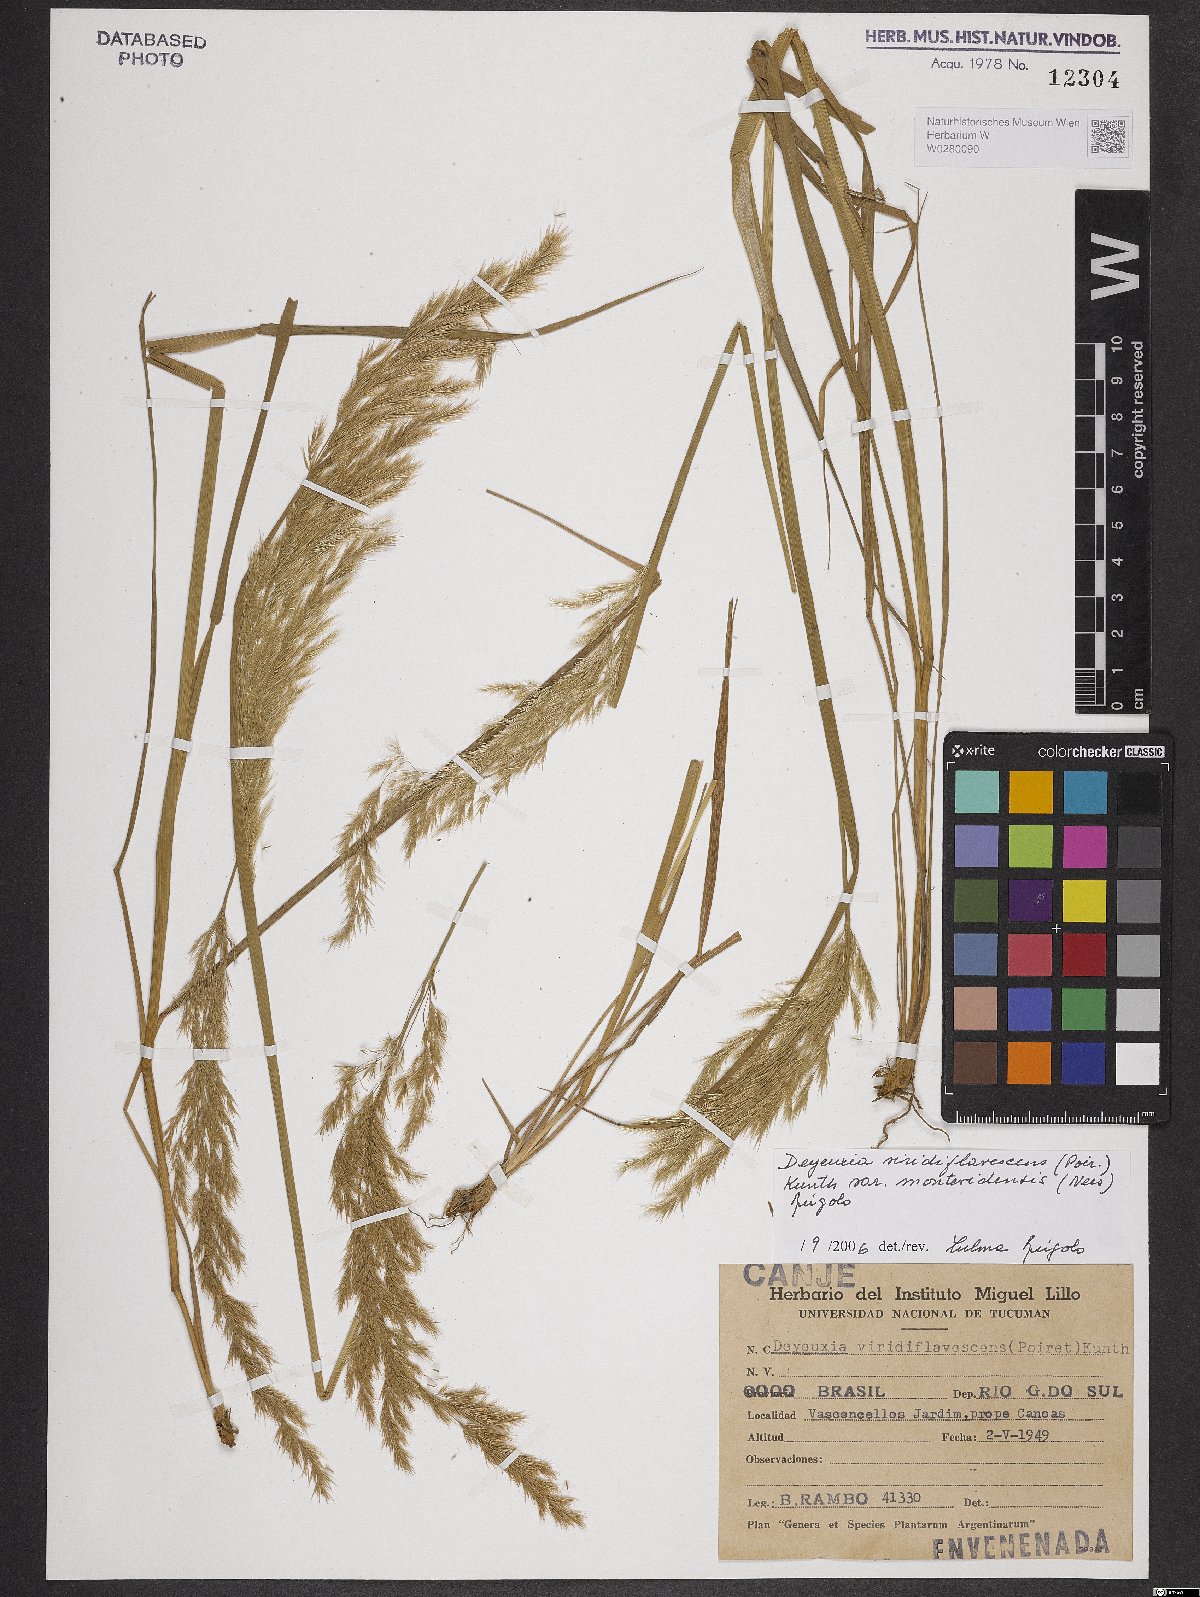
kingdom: Plantae
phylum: Tracheophyta
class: Liliopsida
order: Poales
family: Poaceae
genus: Cinnagrostis
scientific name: Cinnagrostis viridiflavescens
